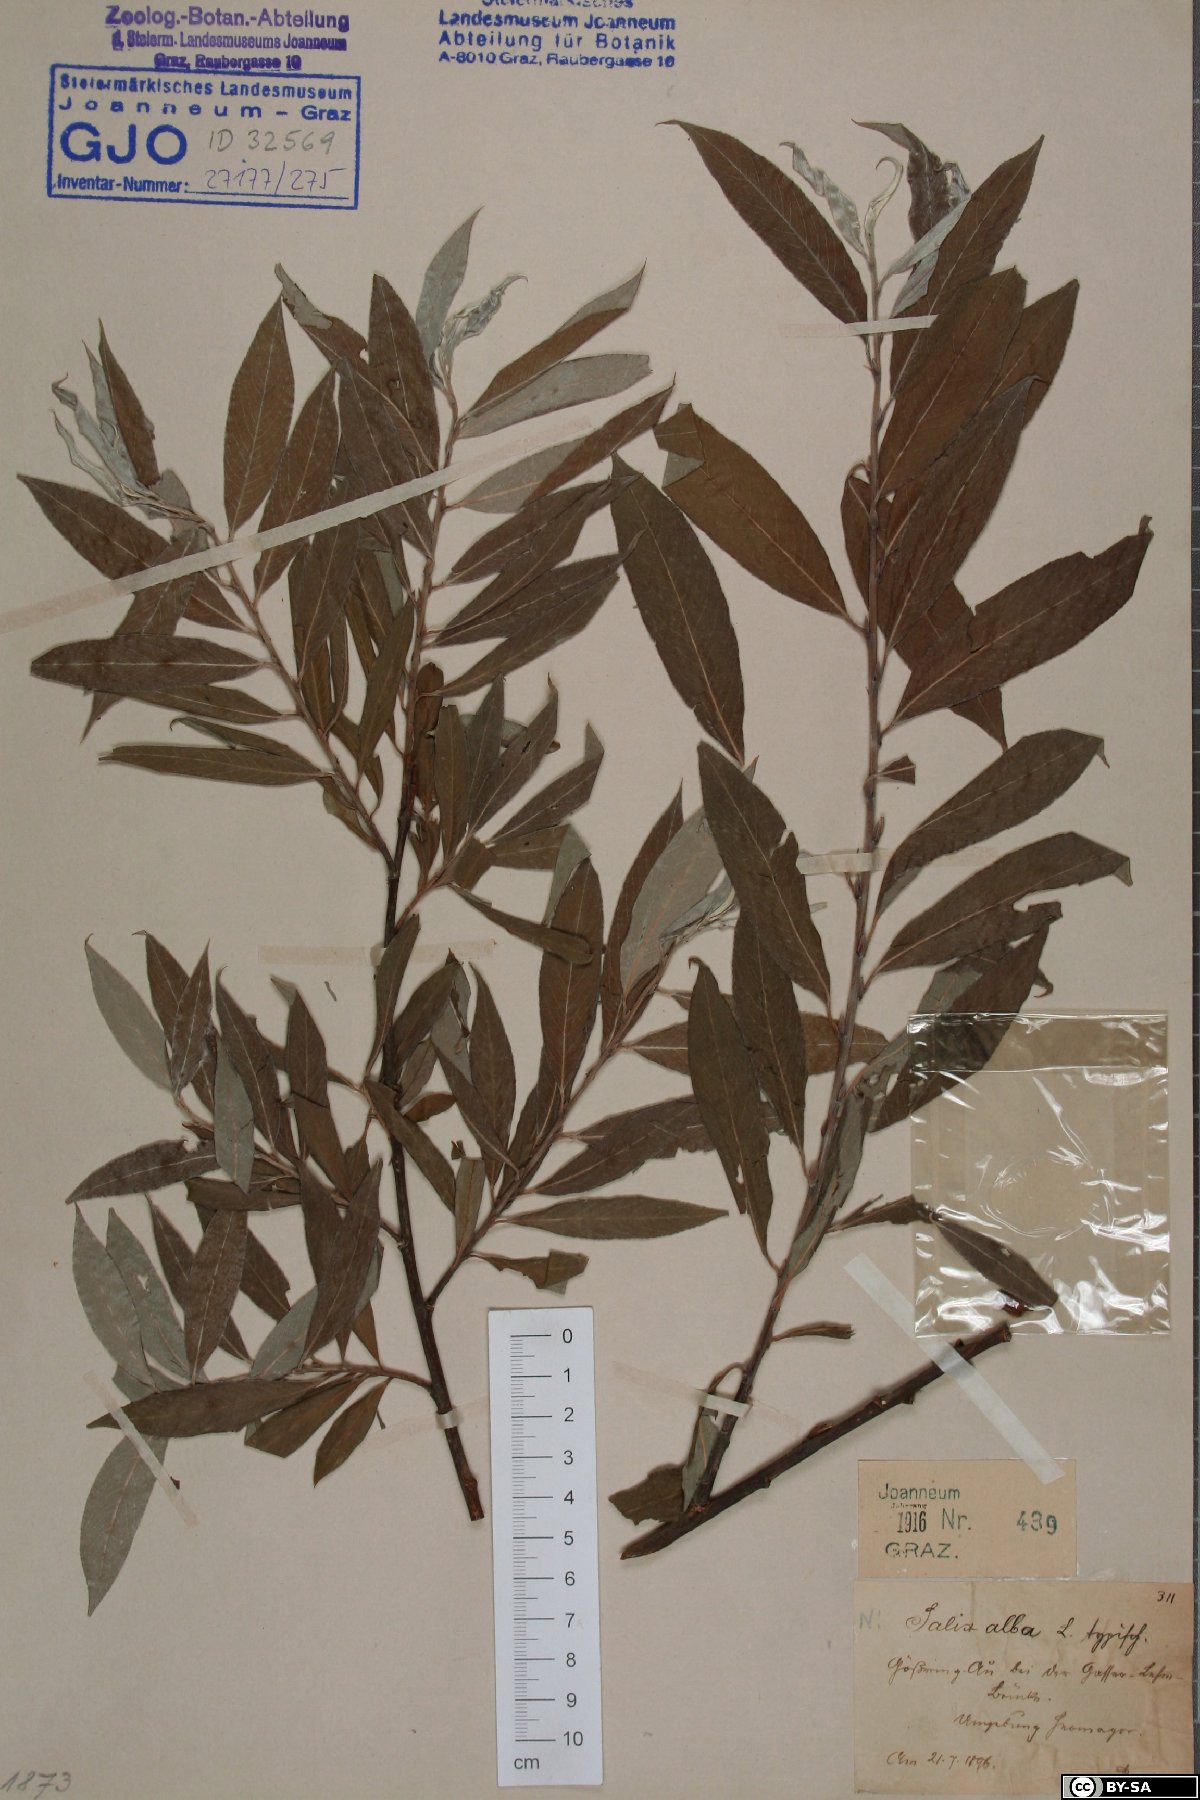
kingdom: Plantae
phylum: Tracheophyta
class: Magnoliopsida
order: Malpighiales
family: Salicaceae
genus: Salix
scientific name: Salix alba
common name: White willow
